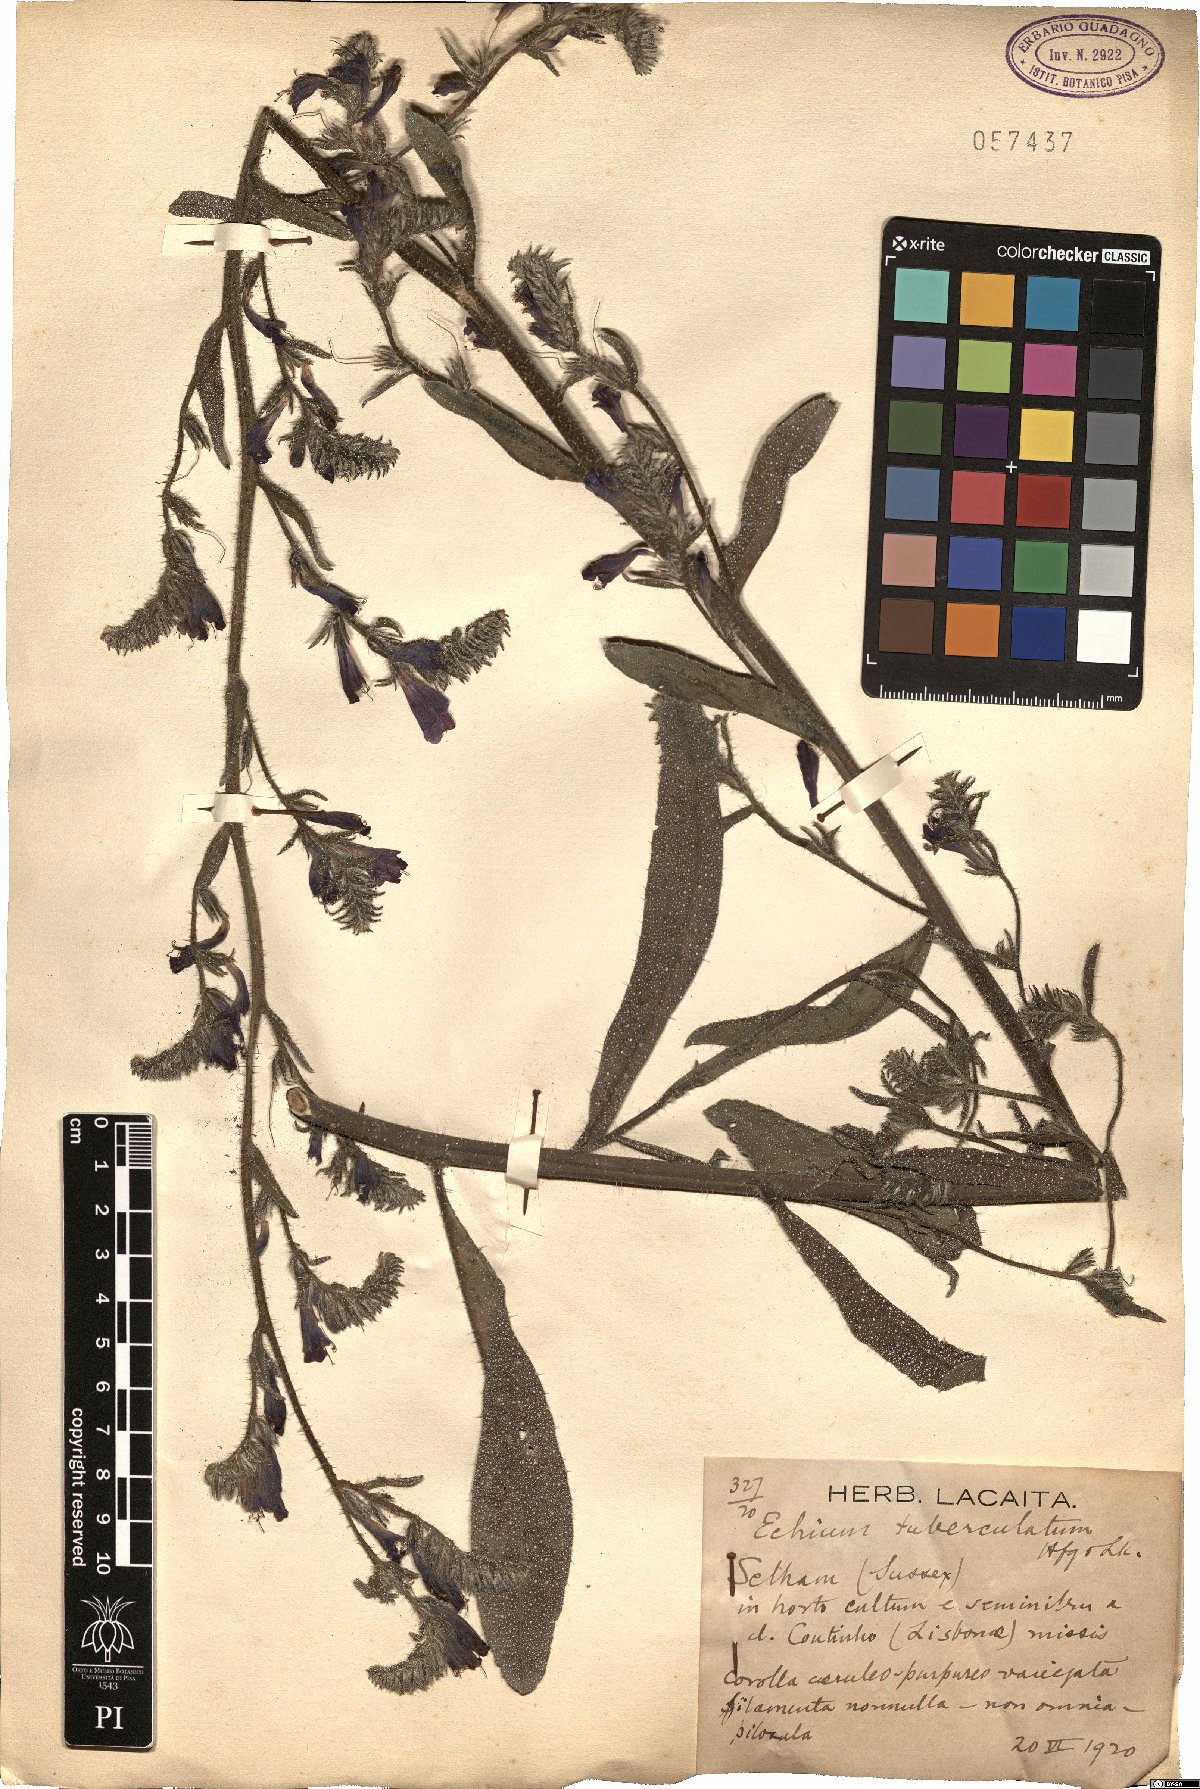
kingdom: Plantae
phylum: Tracheophyta
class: Magnoliopsida
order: Boraginales
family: Boraginaceae
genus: Echium
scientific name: Echium tuberculatum
